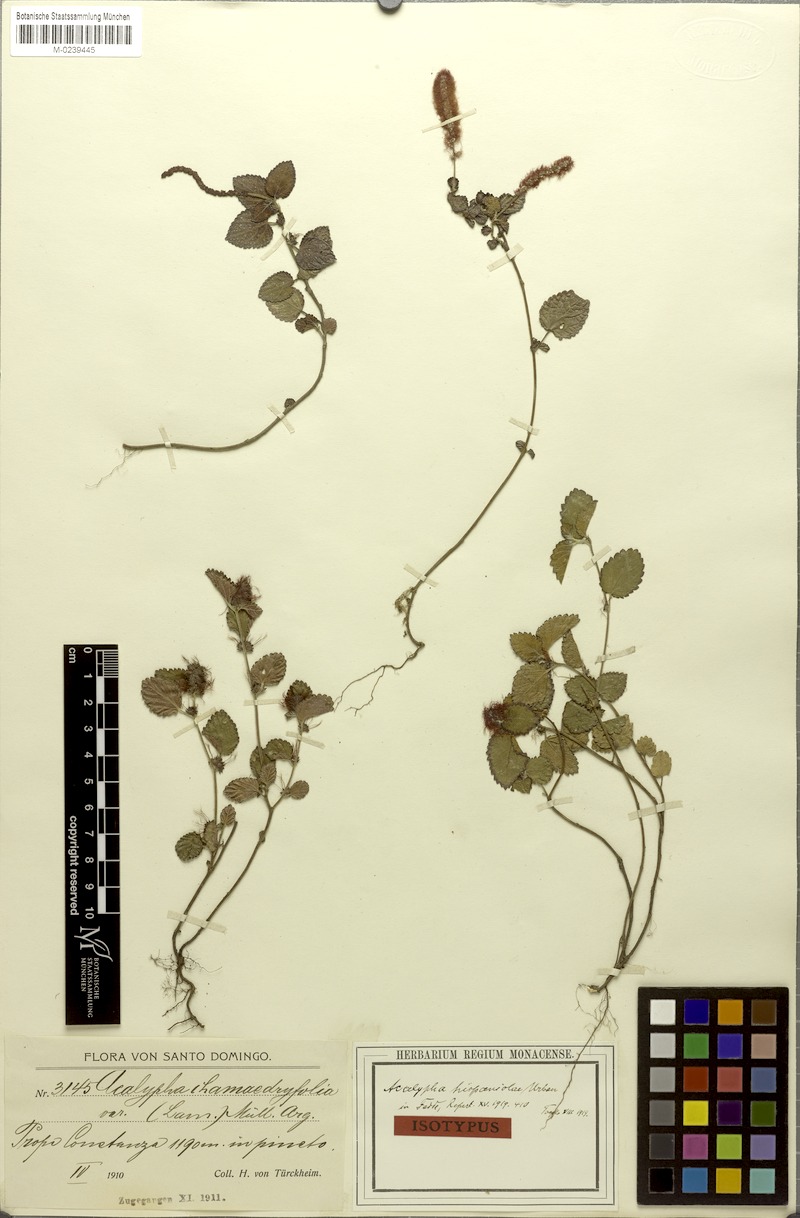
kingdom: Plantae
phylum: Tracheophyta
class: Magnoliopsida
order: Malpighiales
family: Euphorbiaceae
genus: Acalypha
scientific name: Acalypha chamaedrifolia
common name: Bastard copperleaf
